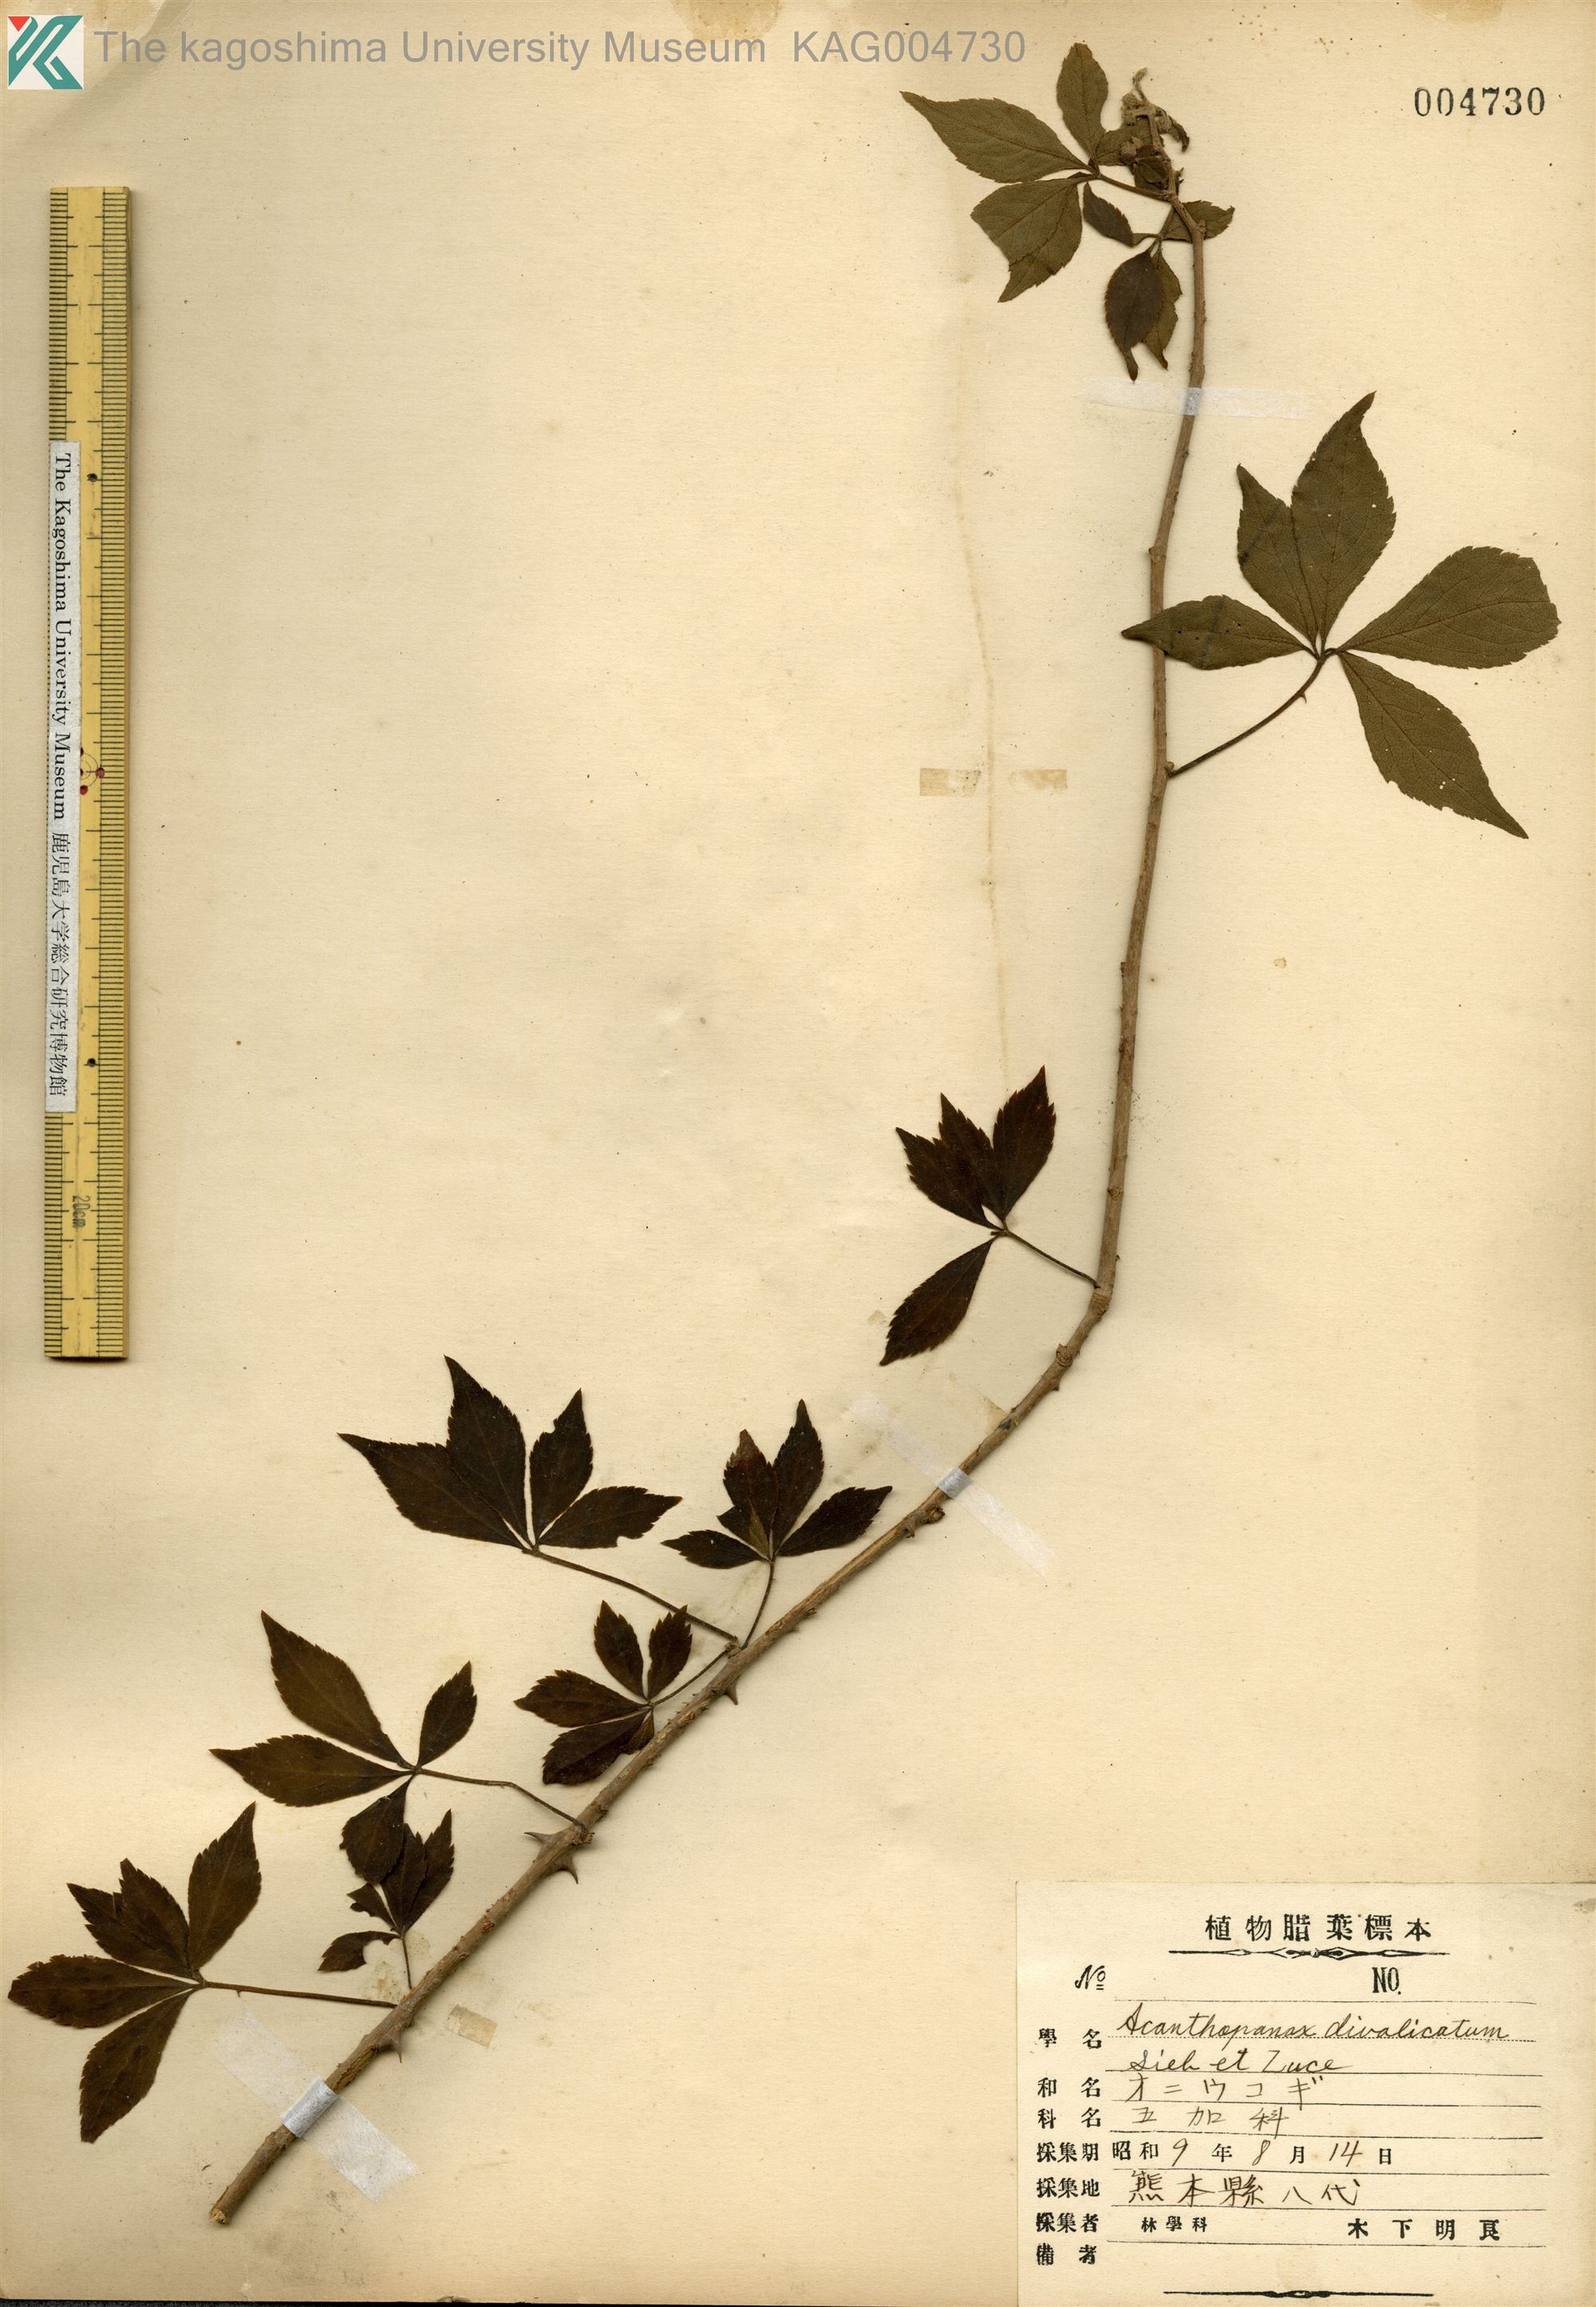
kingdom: Plantae
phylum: Tracheophyta
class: Magnoliopsida
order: Apiales
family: Araliaceae
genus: Eleutherococcus
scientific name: Eleutherococcus divaricatus
